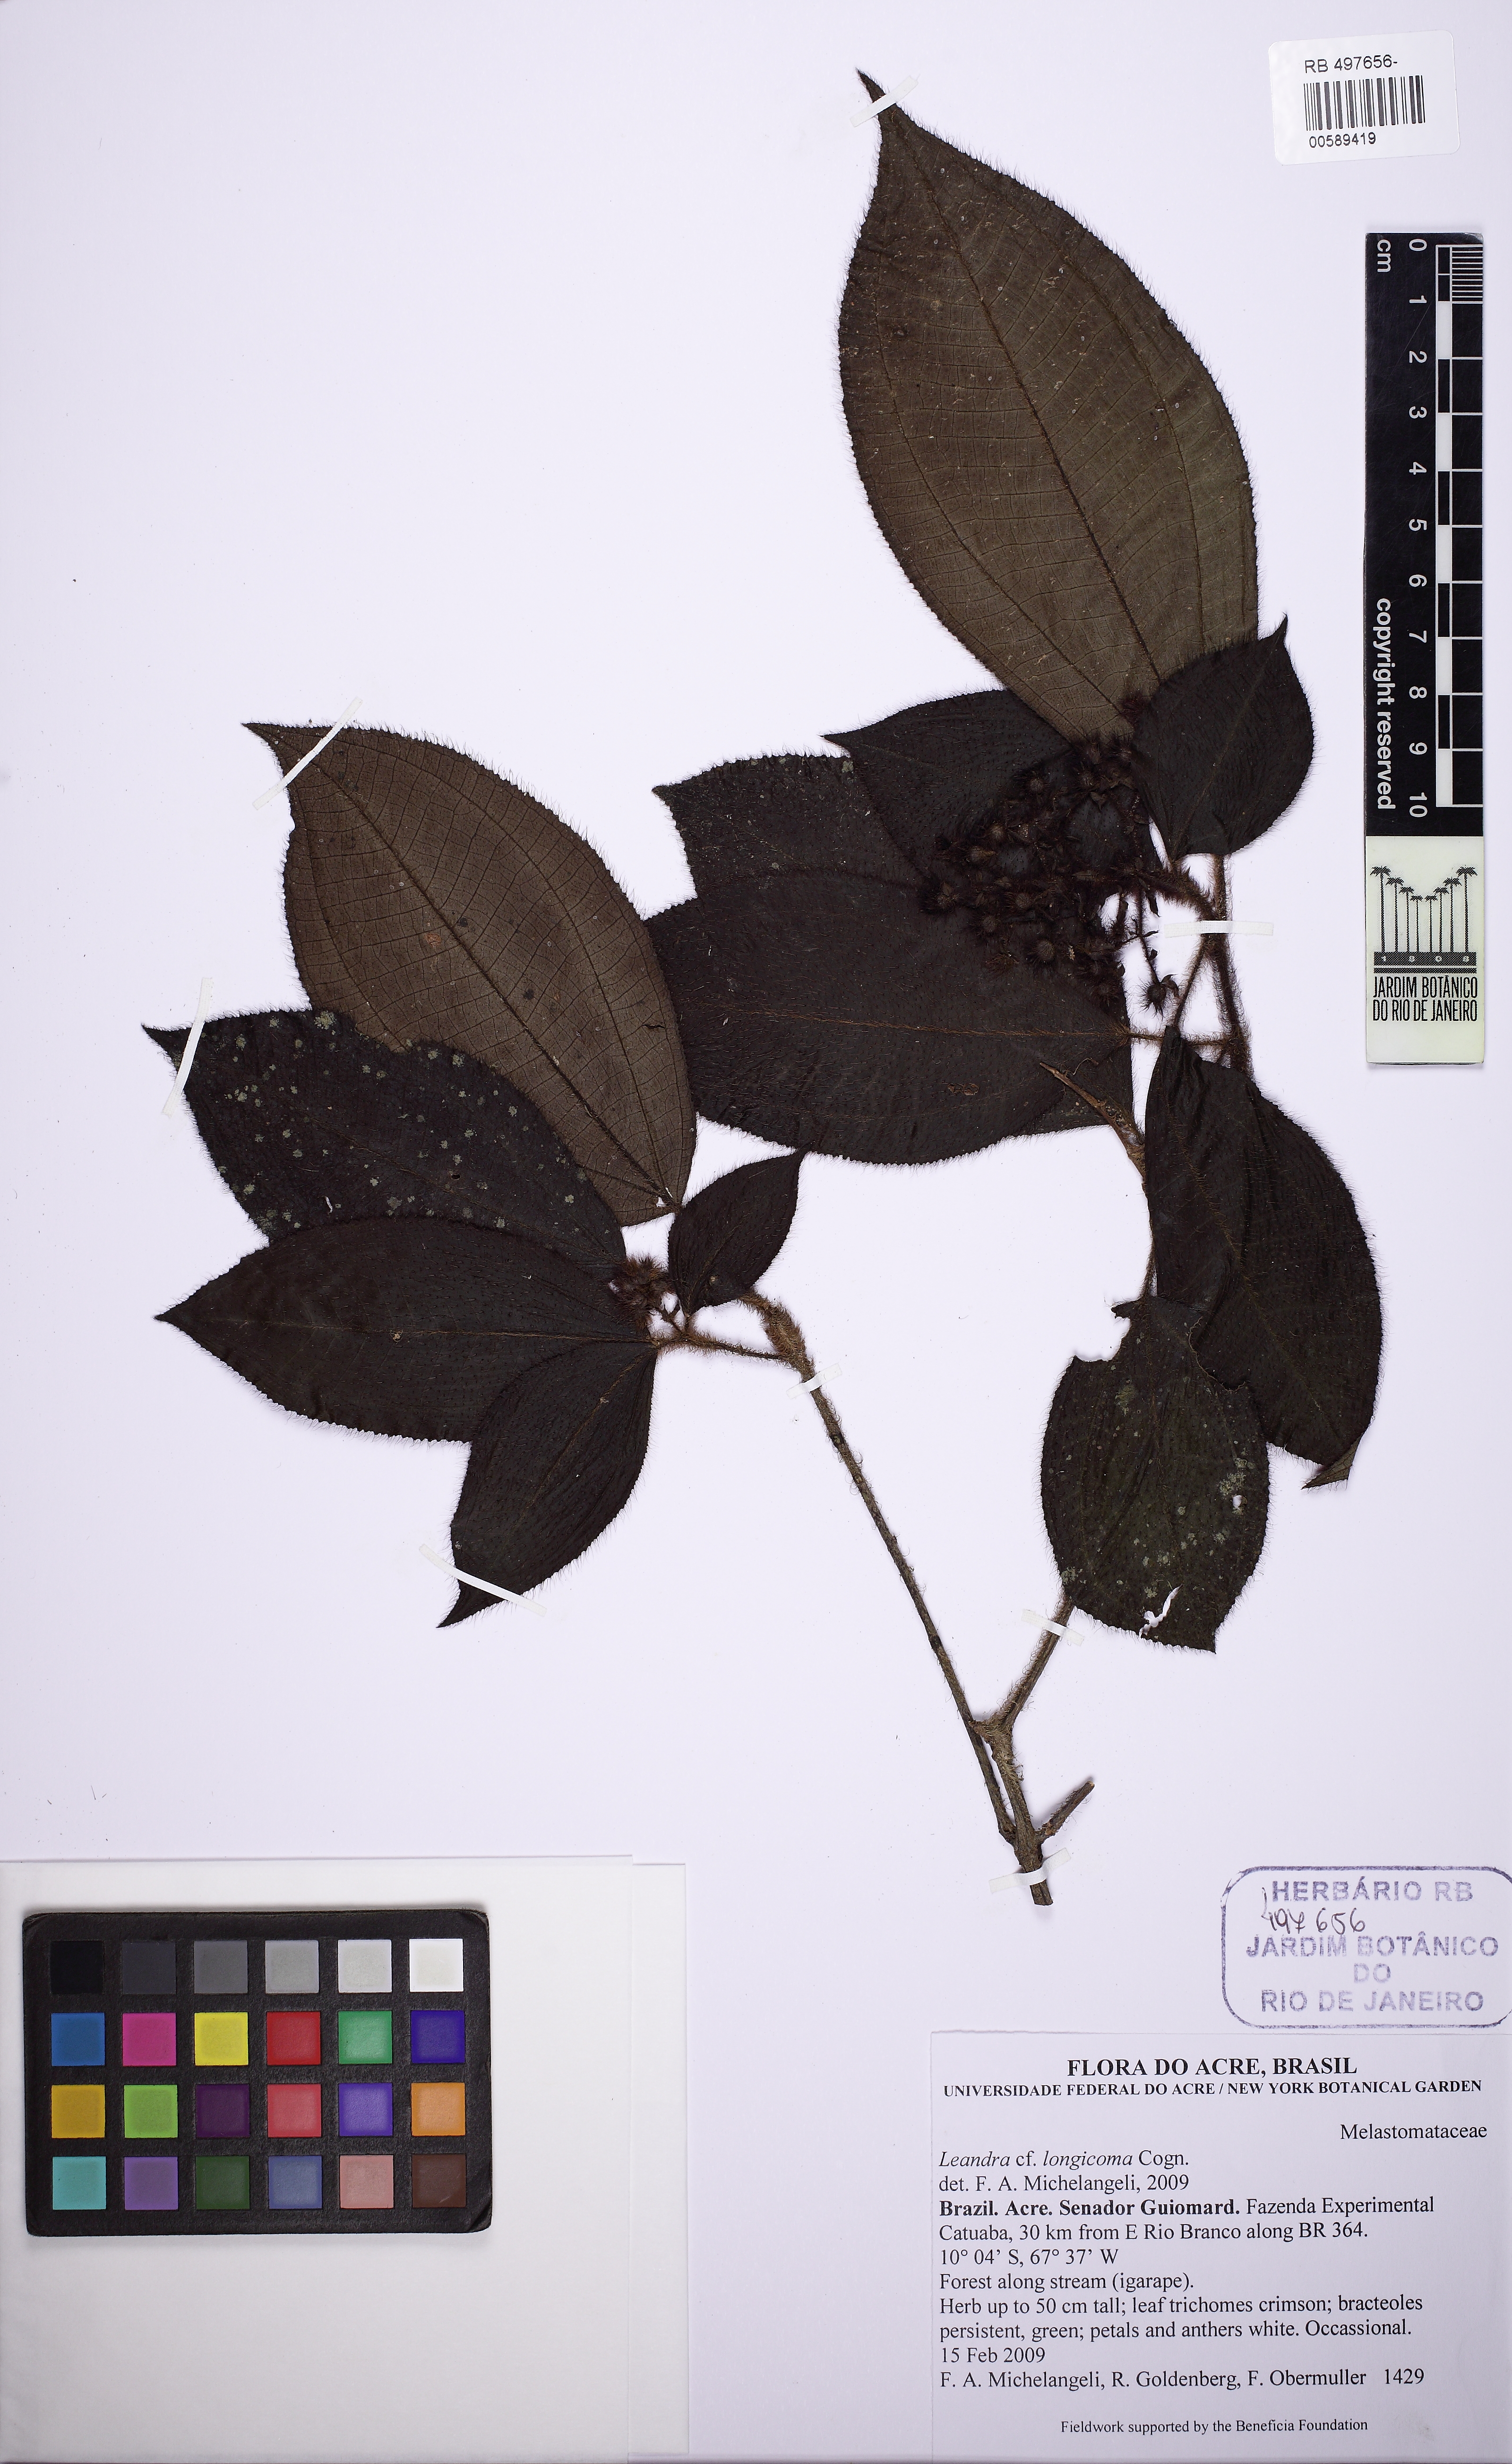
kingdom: Plantae
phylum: Tracheophyta
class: Magnoliopsida
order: Myrtales
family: Melastomataceae
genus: Miconia
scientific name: Miconia longicoma
